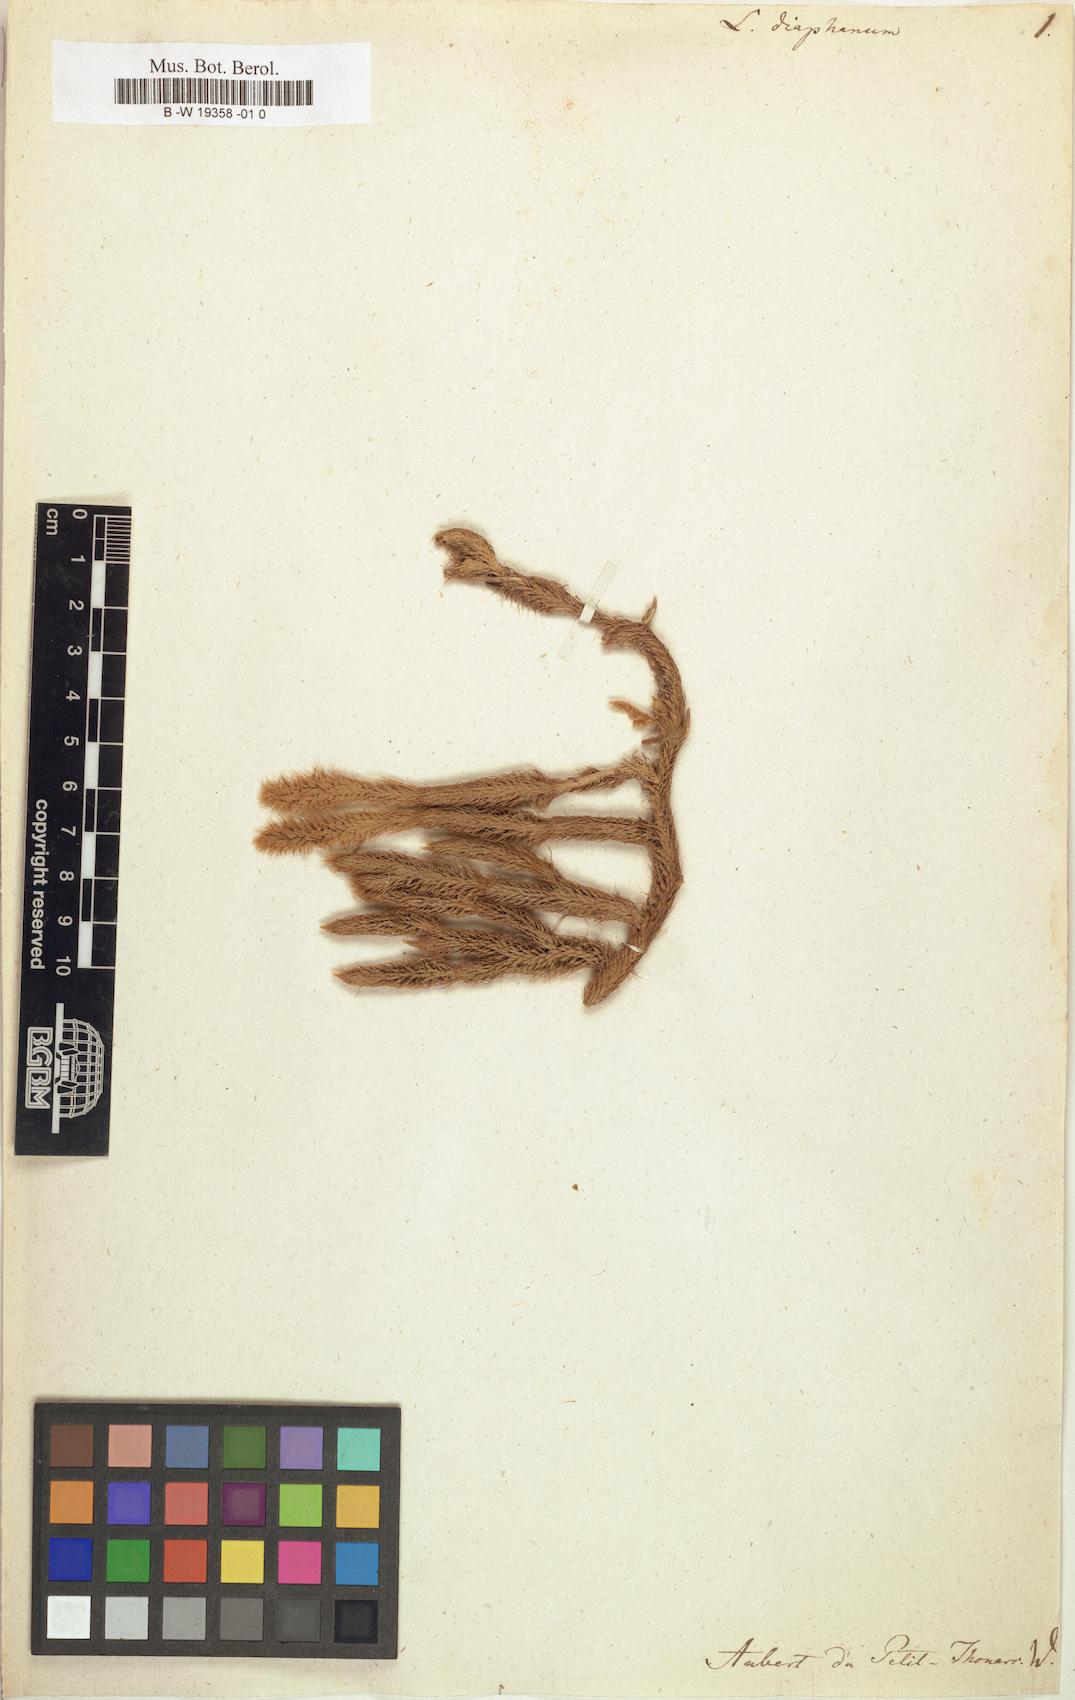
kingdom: Plantae
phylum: Tracheophyta
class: Lycopodiopsida
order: Lycopodiales
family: Lycopodiaceae
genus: Lycopodium
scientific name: Lycopodium diaphanum
